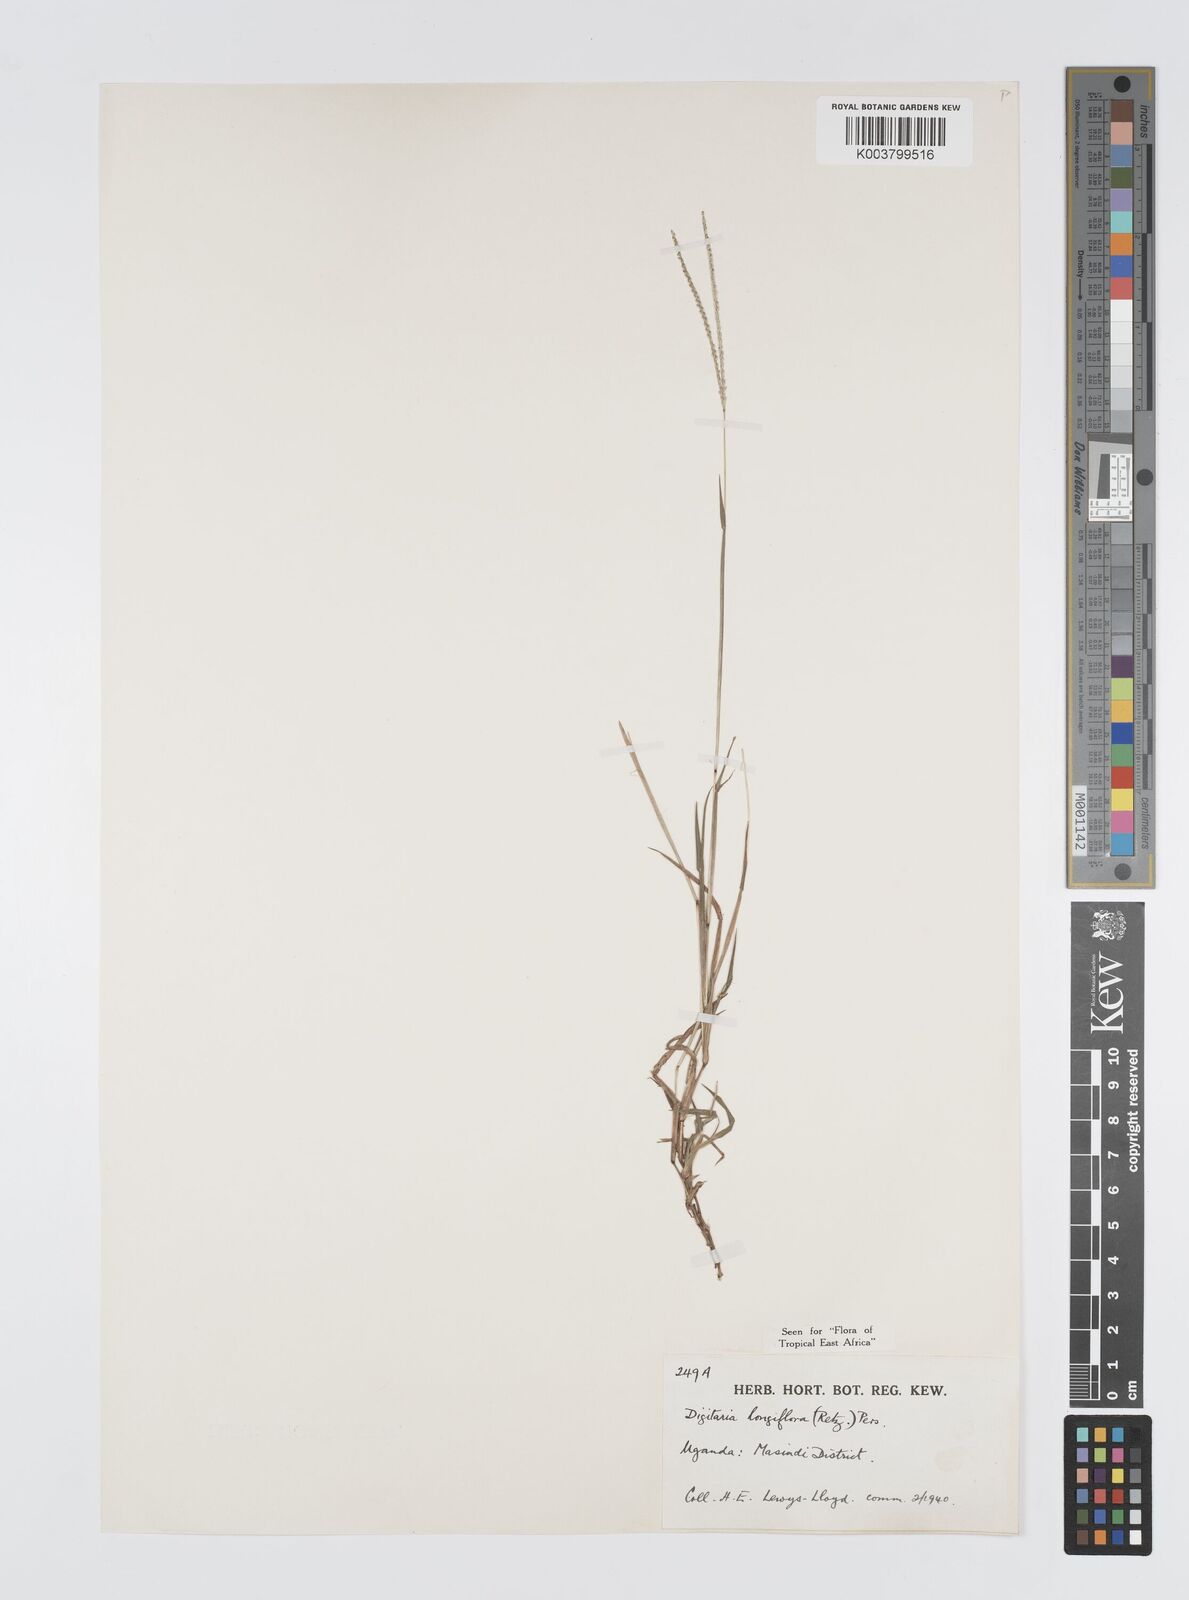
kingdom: Plantae
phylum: Tracheophyta
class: Liliopsida
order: Poales
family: Poaceae
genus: Digitaria
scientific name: Digitaria longiflora
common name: Wire crabgrass
